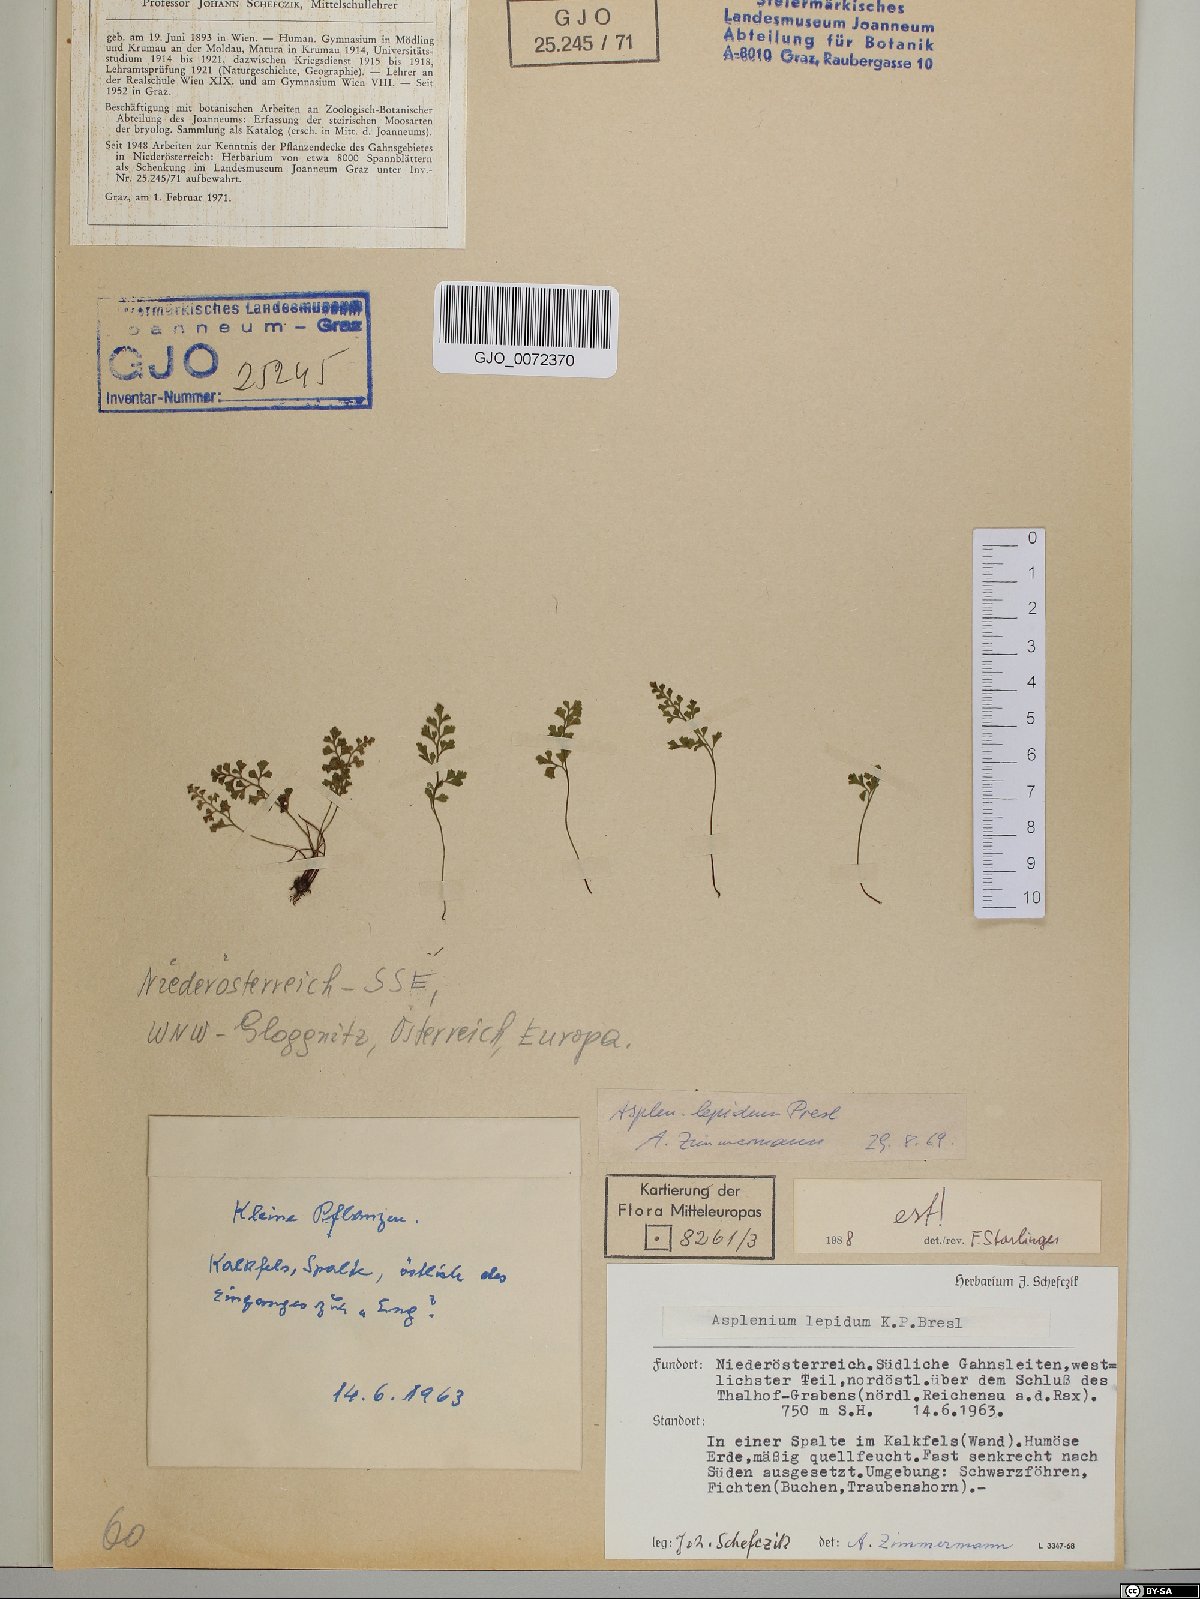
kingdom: Plantae
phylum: Tracheophyta
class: Polypodiopsida
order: Polypodiales
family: Aspleniaceae
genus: Asplenium
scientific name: Asplenium lepidum
